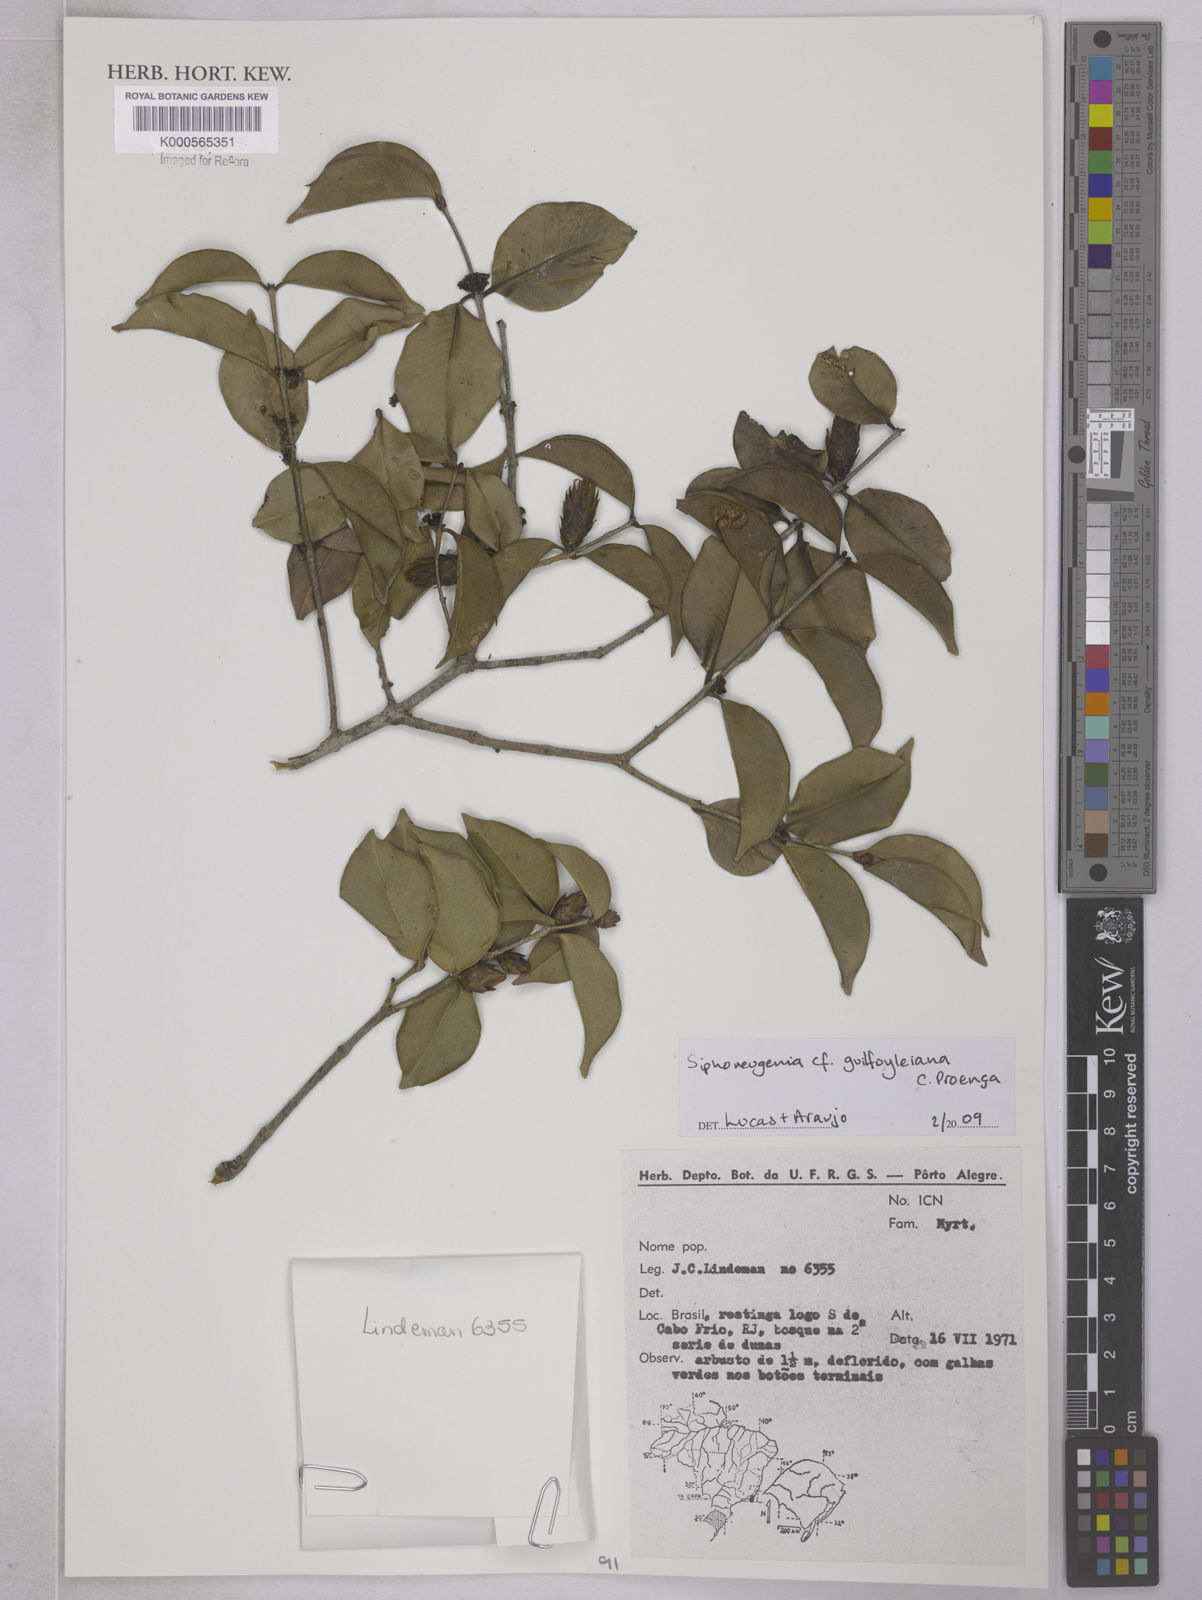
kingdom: Plantae
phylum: Tracheophyta
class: Magnoliopsida
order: Myrtales
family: Myrtaceae
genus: Siphoneugena
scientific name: Siphoneugena
